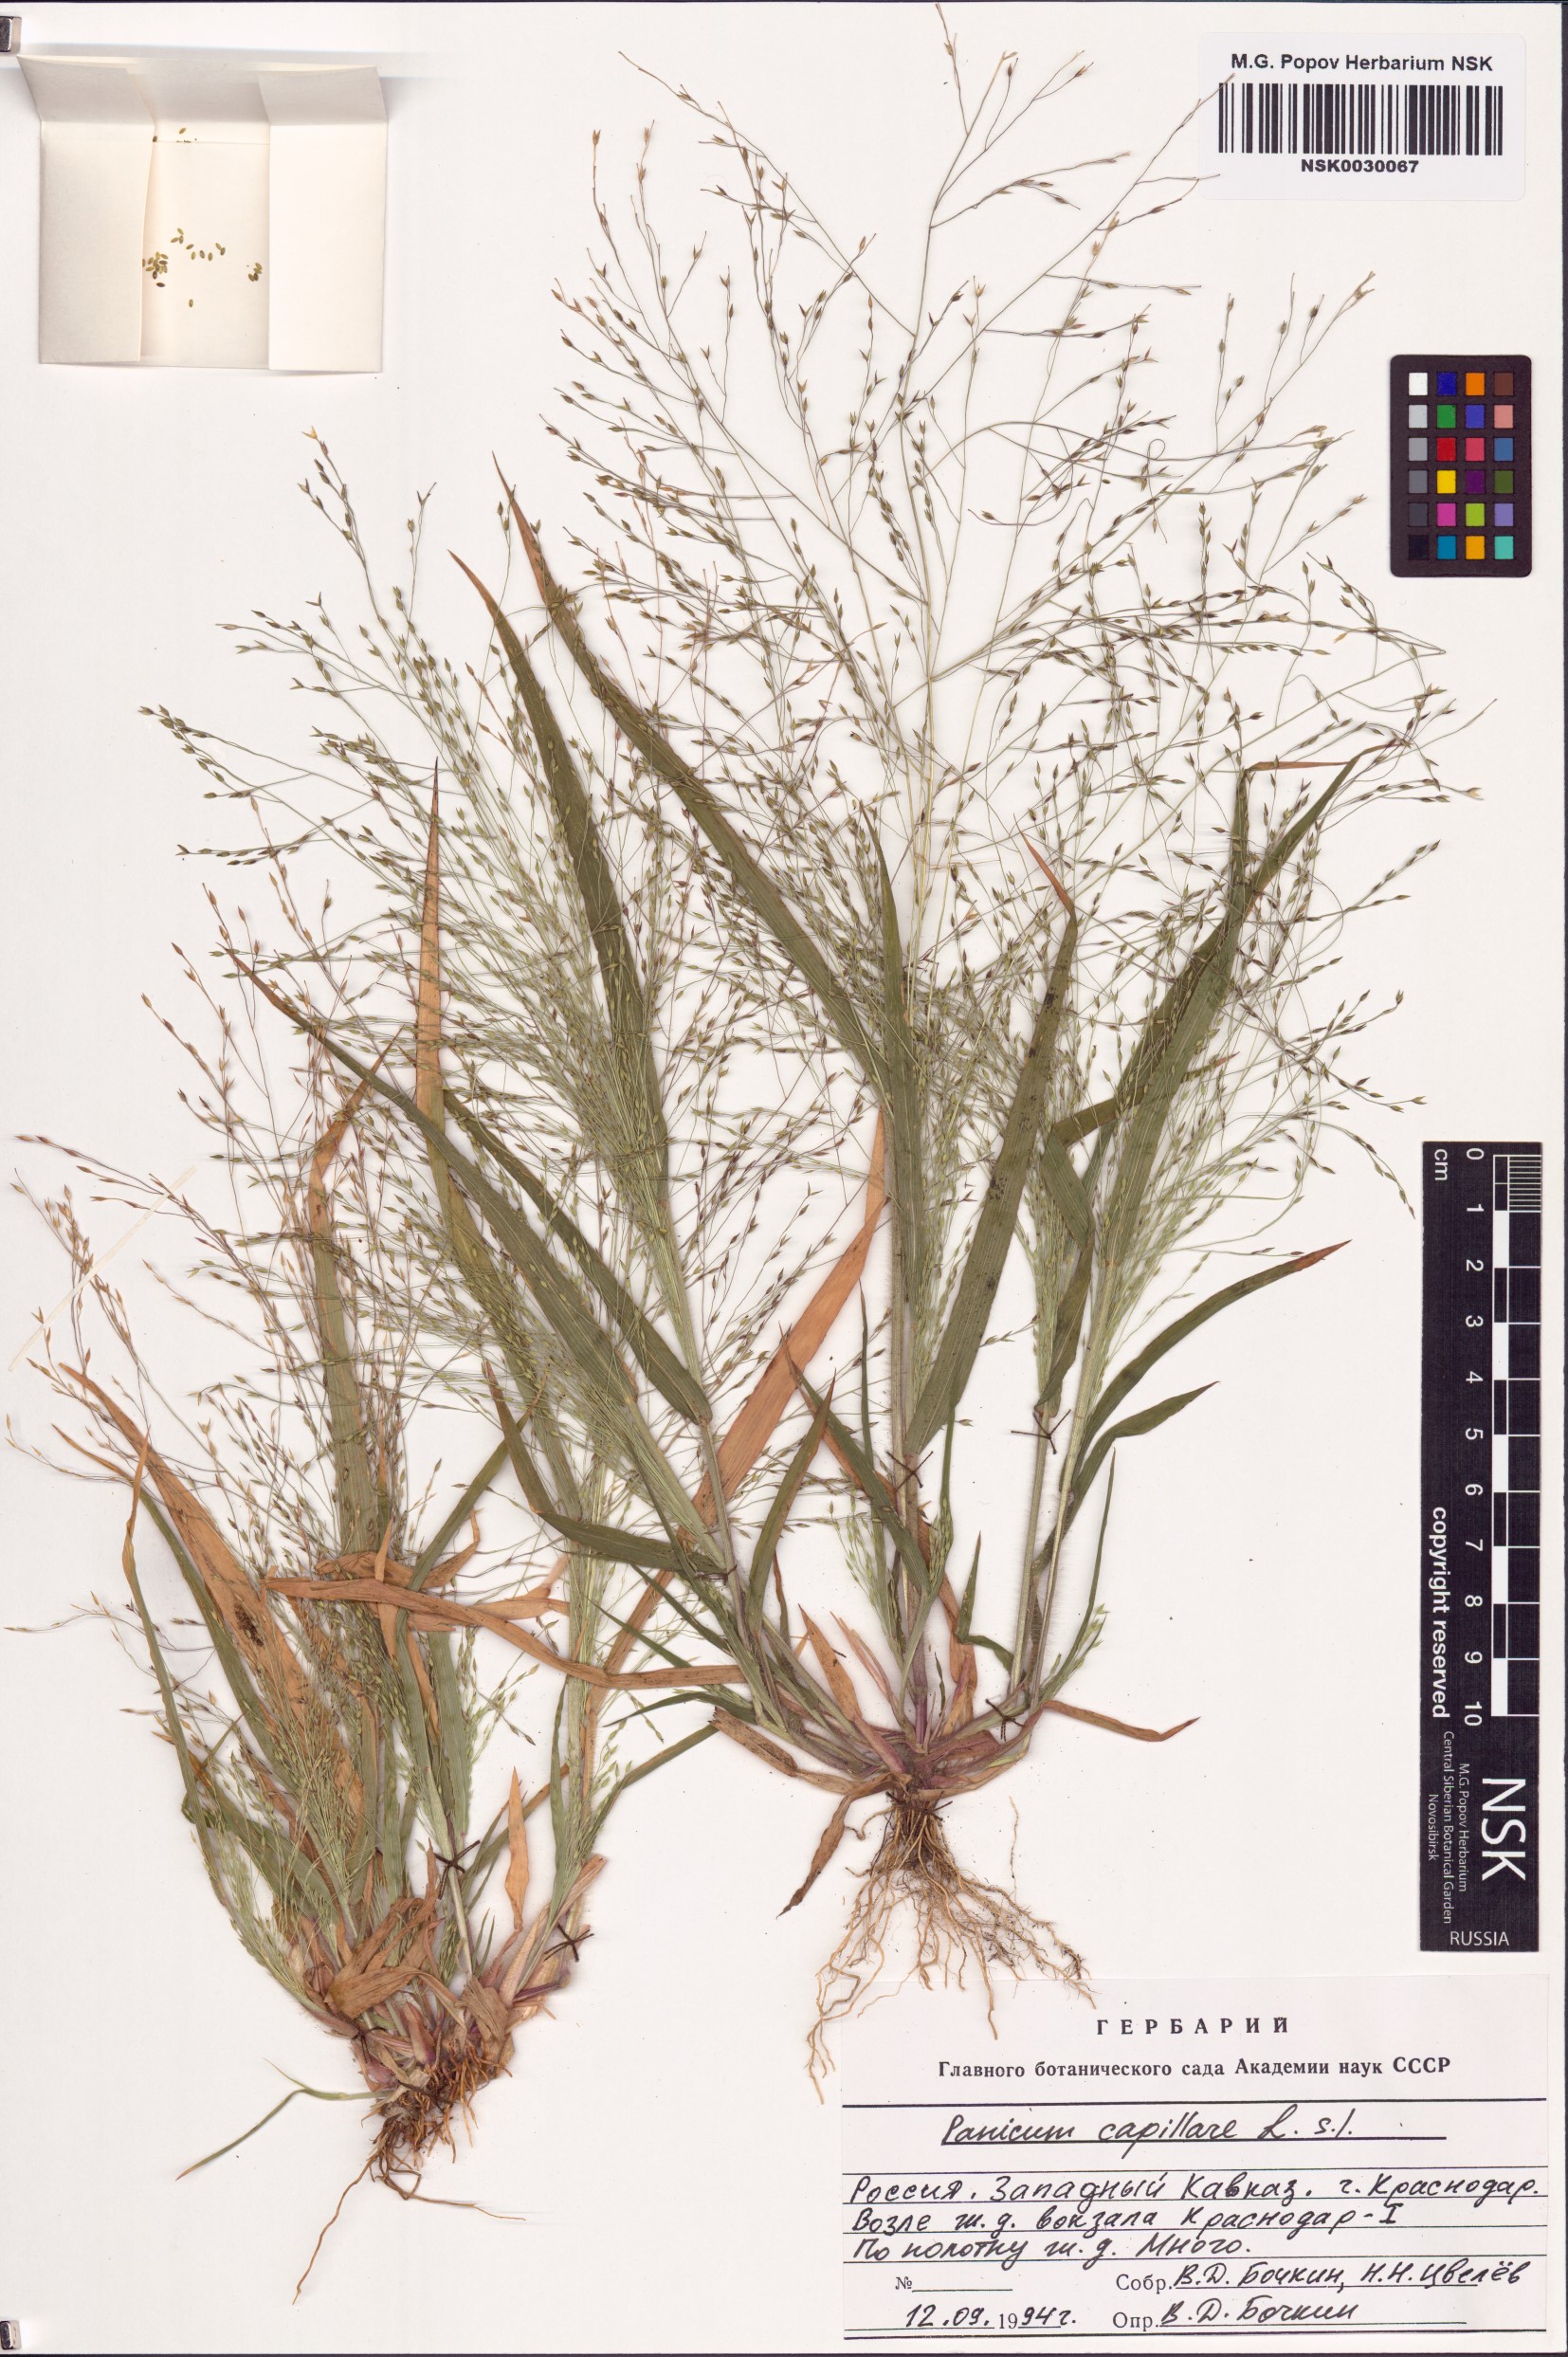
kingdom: Plantae
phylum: Tracheophyta
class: Liliopsida
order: Poales
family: Poaceae
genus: Panicum
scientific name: Panicum capillare
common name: Witch-grass
